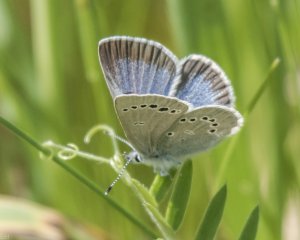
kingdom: Animalia
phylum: Arthropoda
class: Insecta
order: Lepidoptera
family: Lycaenidae
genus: Glaucopsyche
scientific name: Glaucopsyche lygdamus
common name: Silvery Blue
